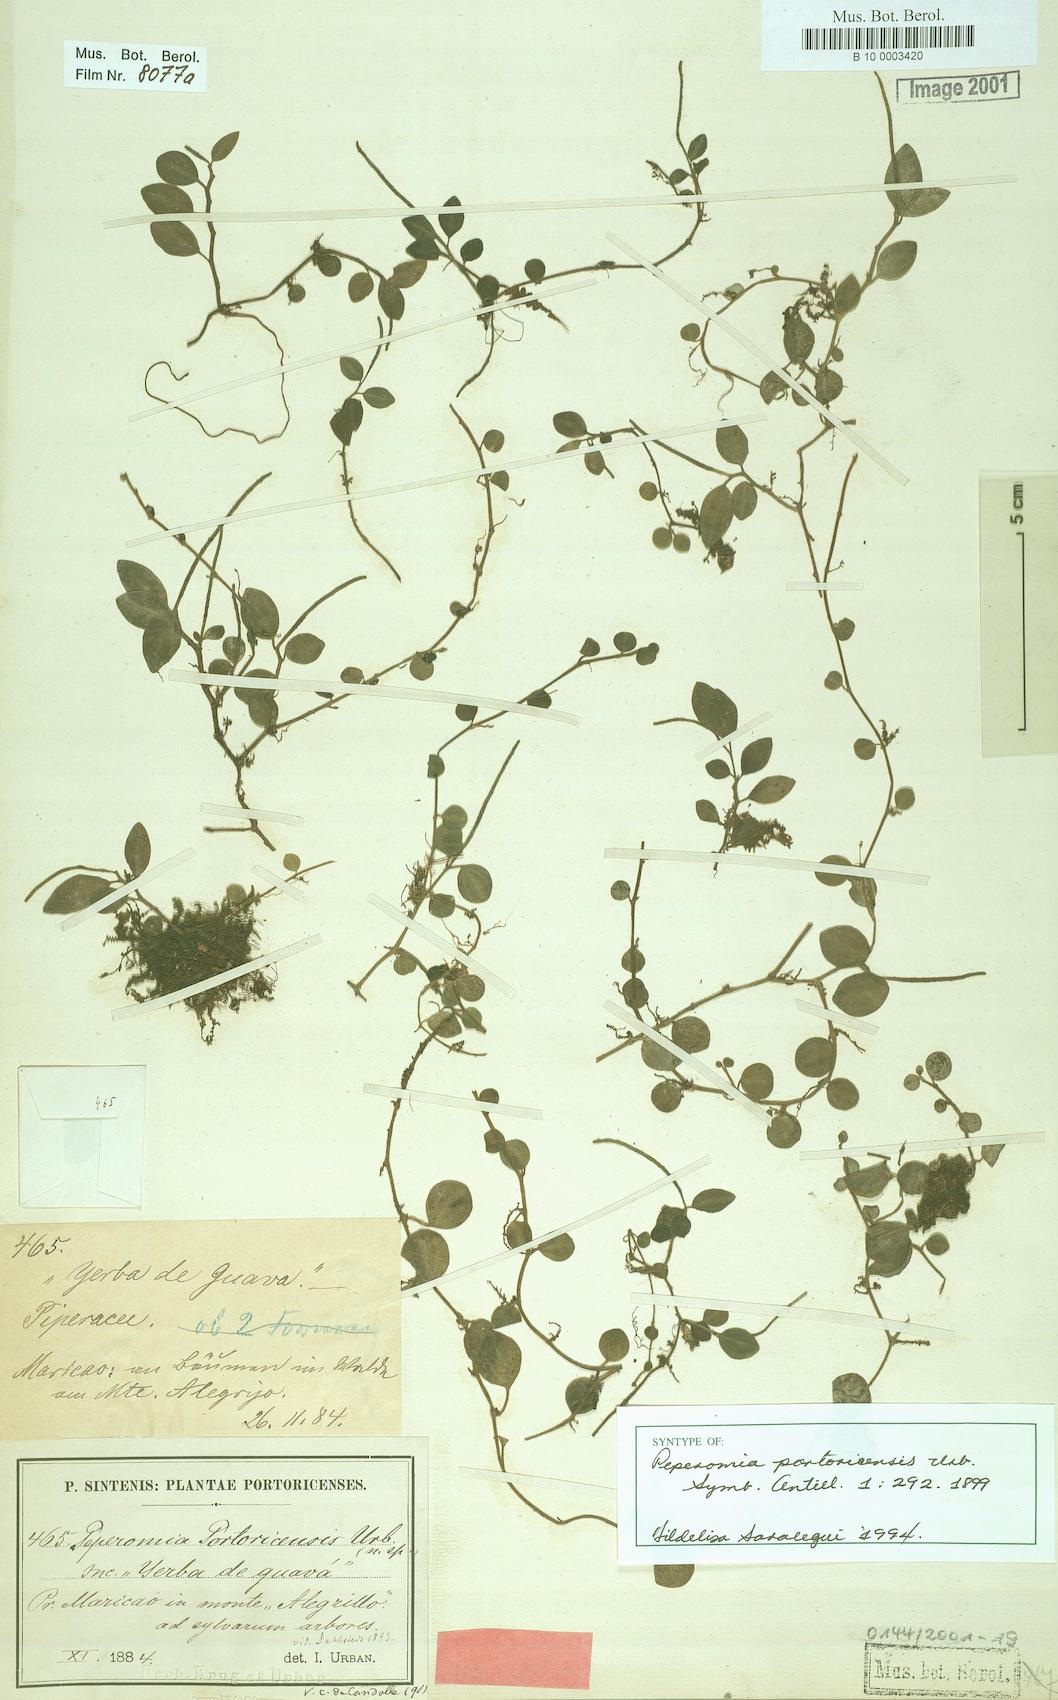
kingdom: Plantae
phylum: Tracheophyta
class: Magnoliopsida
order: Piperales
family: Piperaceae
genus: Peperomia
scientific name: Peperomia portoricensis
